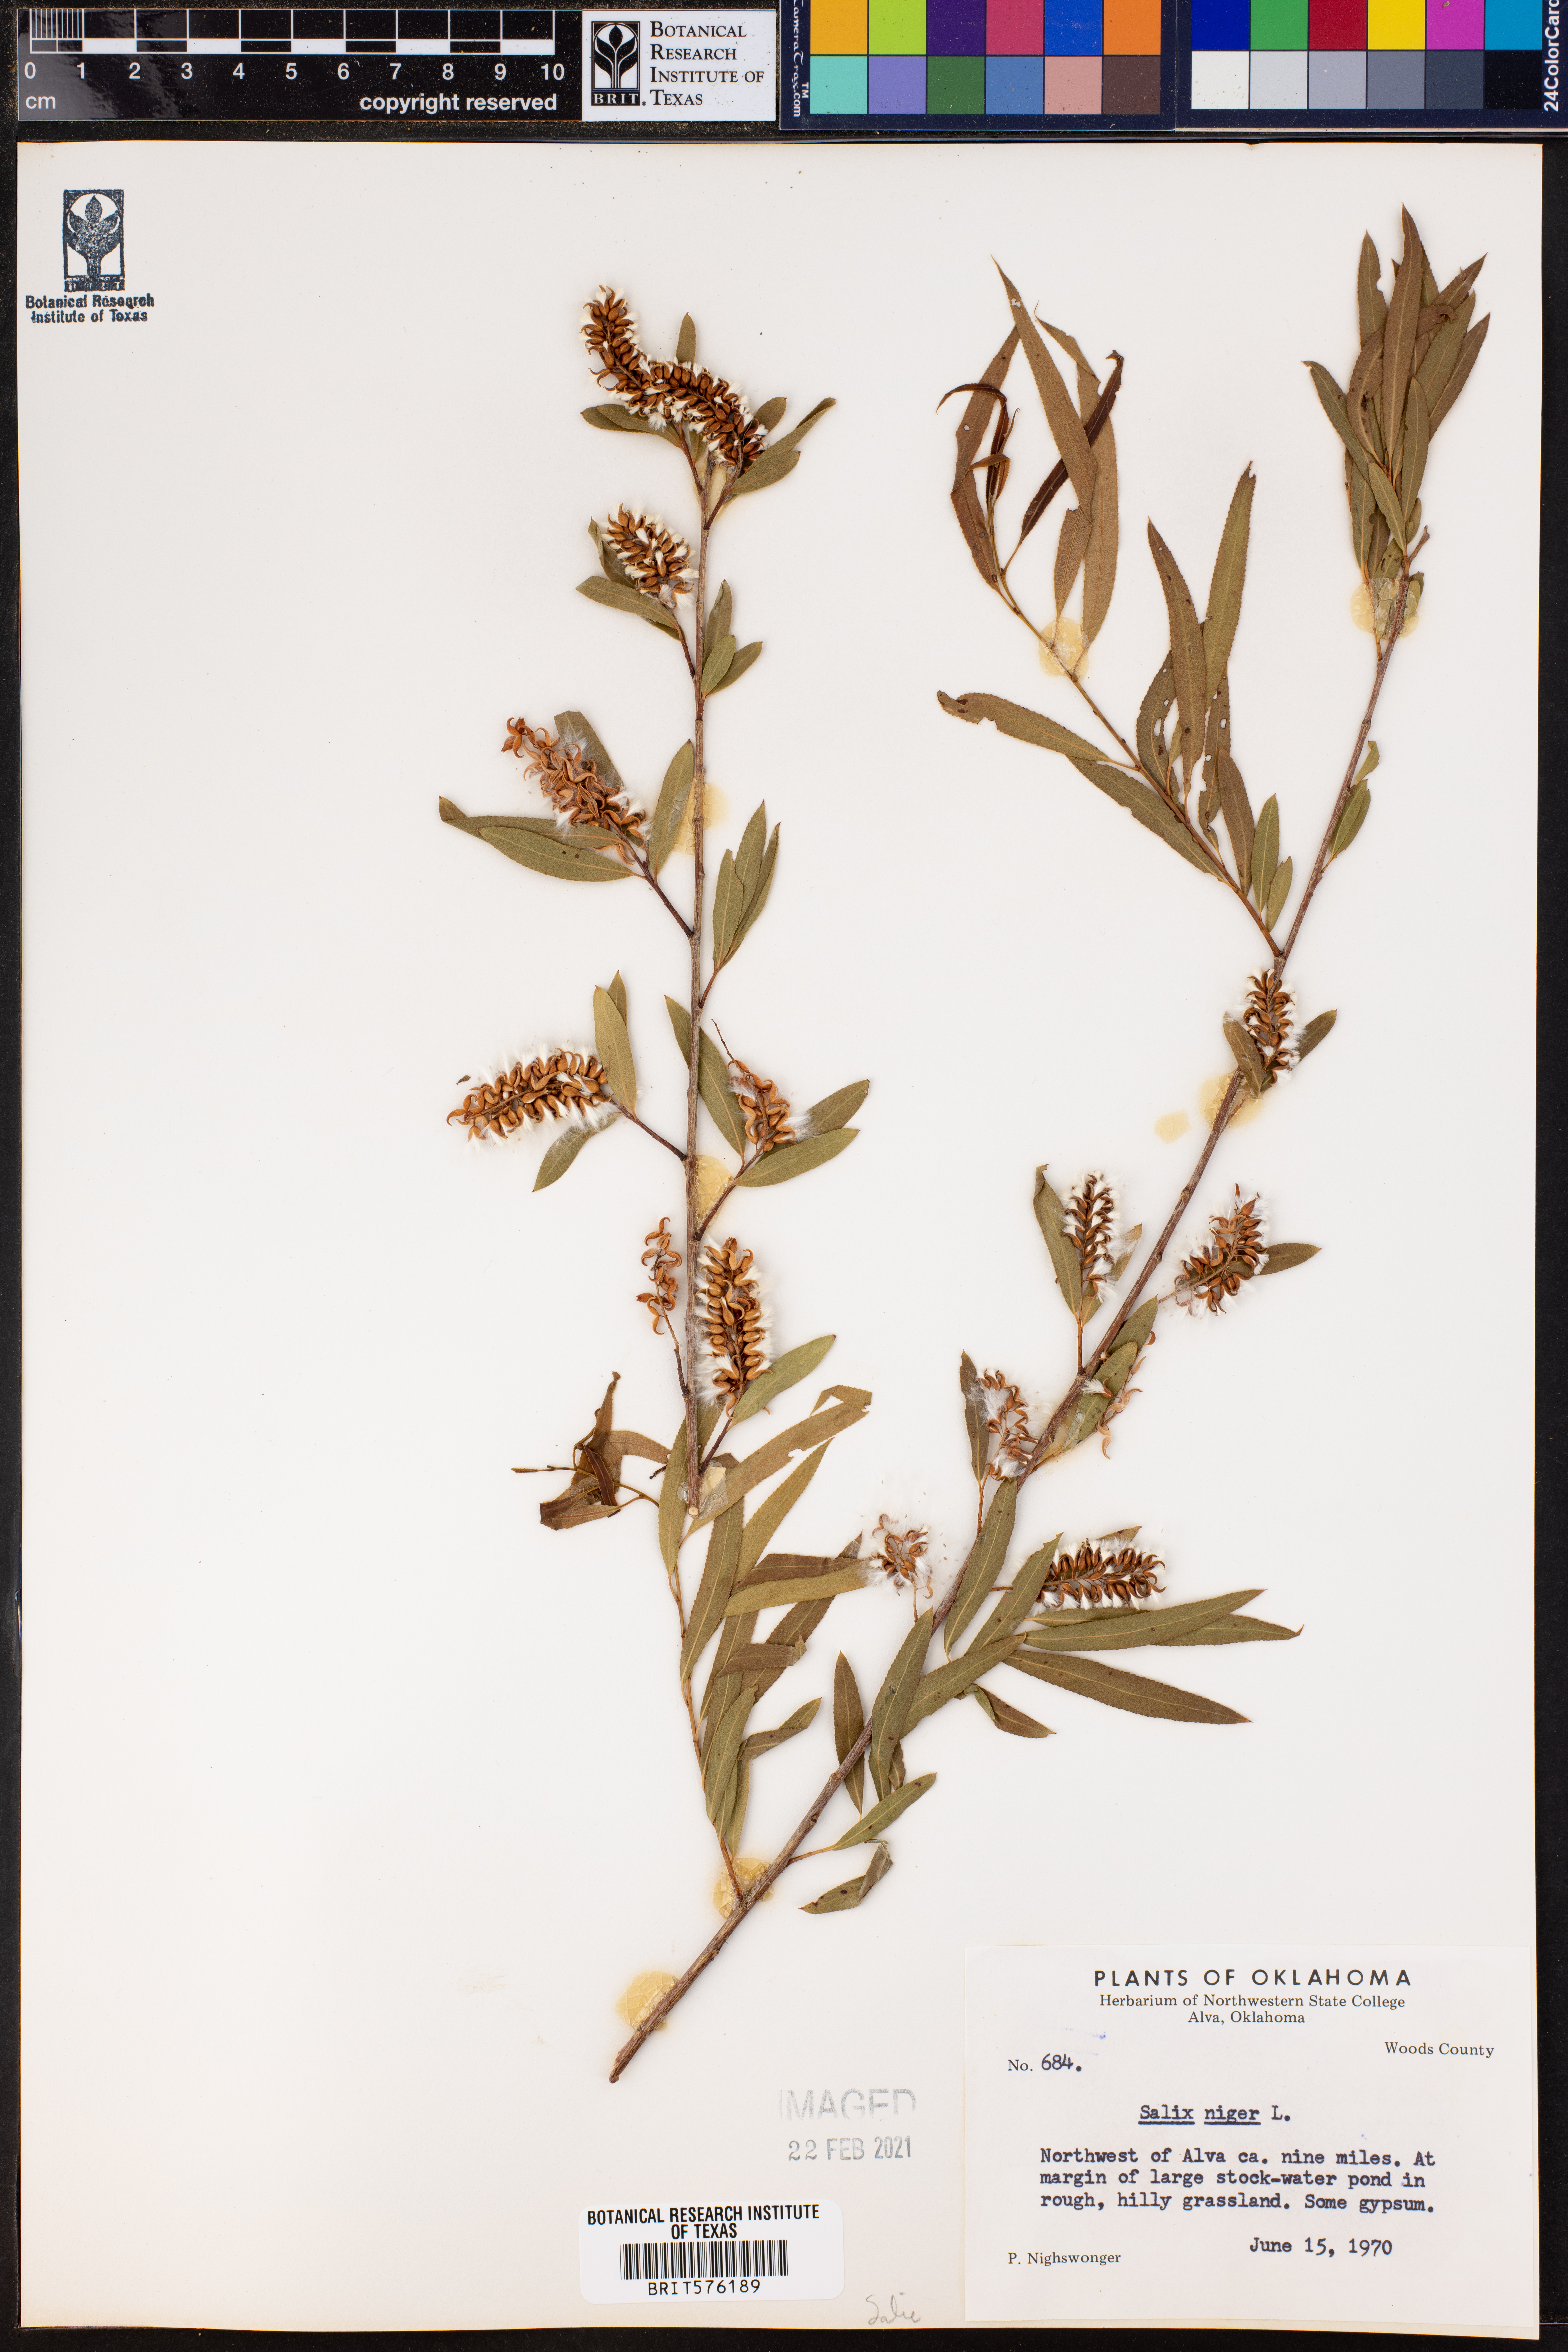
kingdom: Plantae
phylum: Tracheophyta
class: Magnoliopsida
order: Malpighiales
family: Salicaceae
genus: Salix
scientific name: Salix nigra
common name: Black willow
